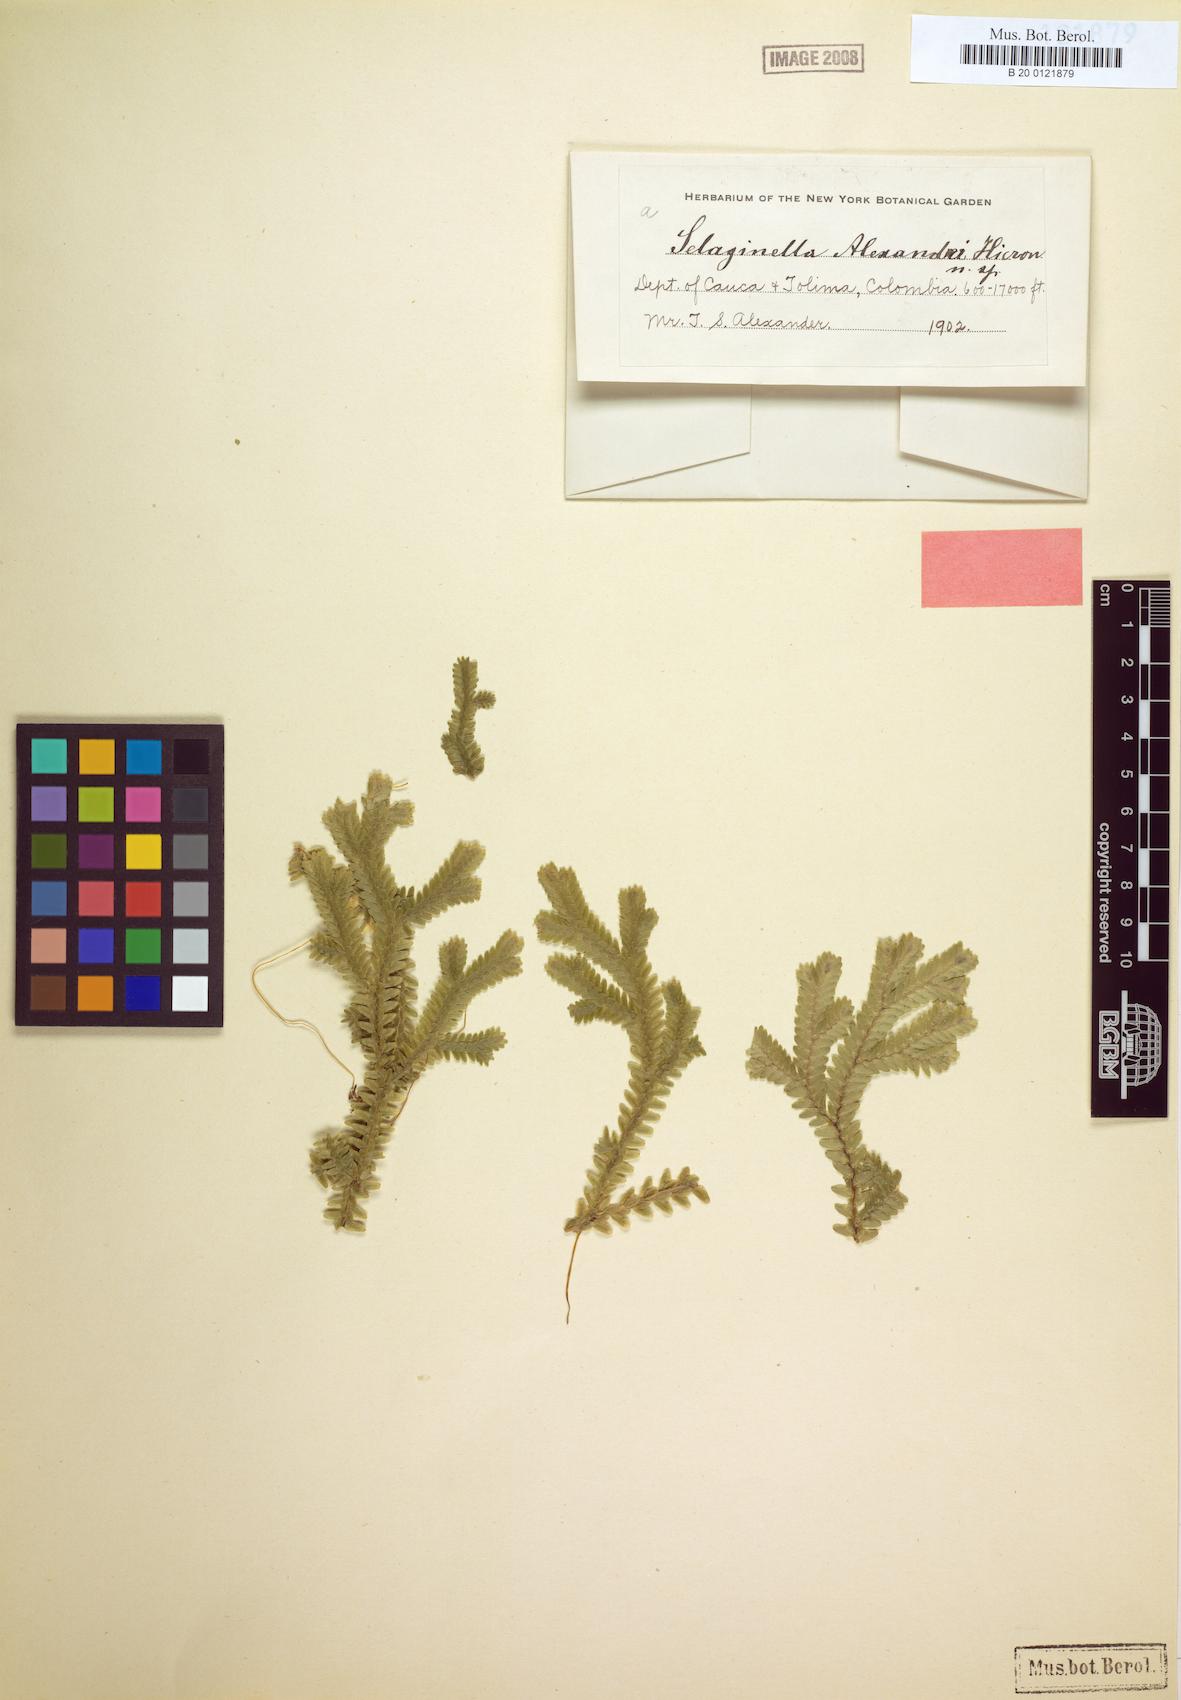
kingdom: Plantae
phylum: Tracheophyta
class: Lycopodiopsida
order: Selaginellales
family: Selaginellaceae
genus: Selaginella
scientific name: Selaginella
